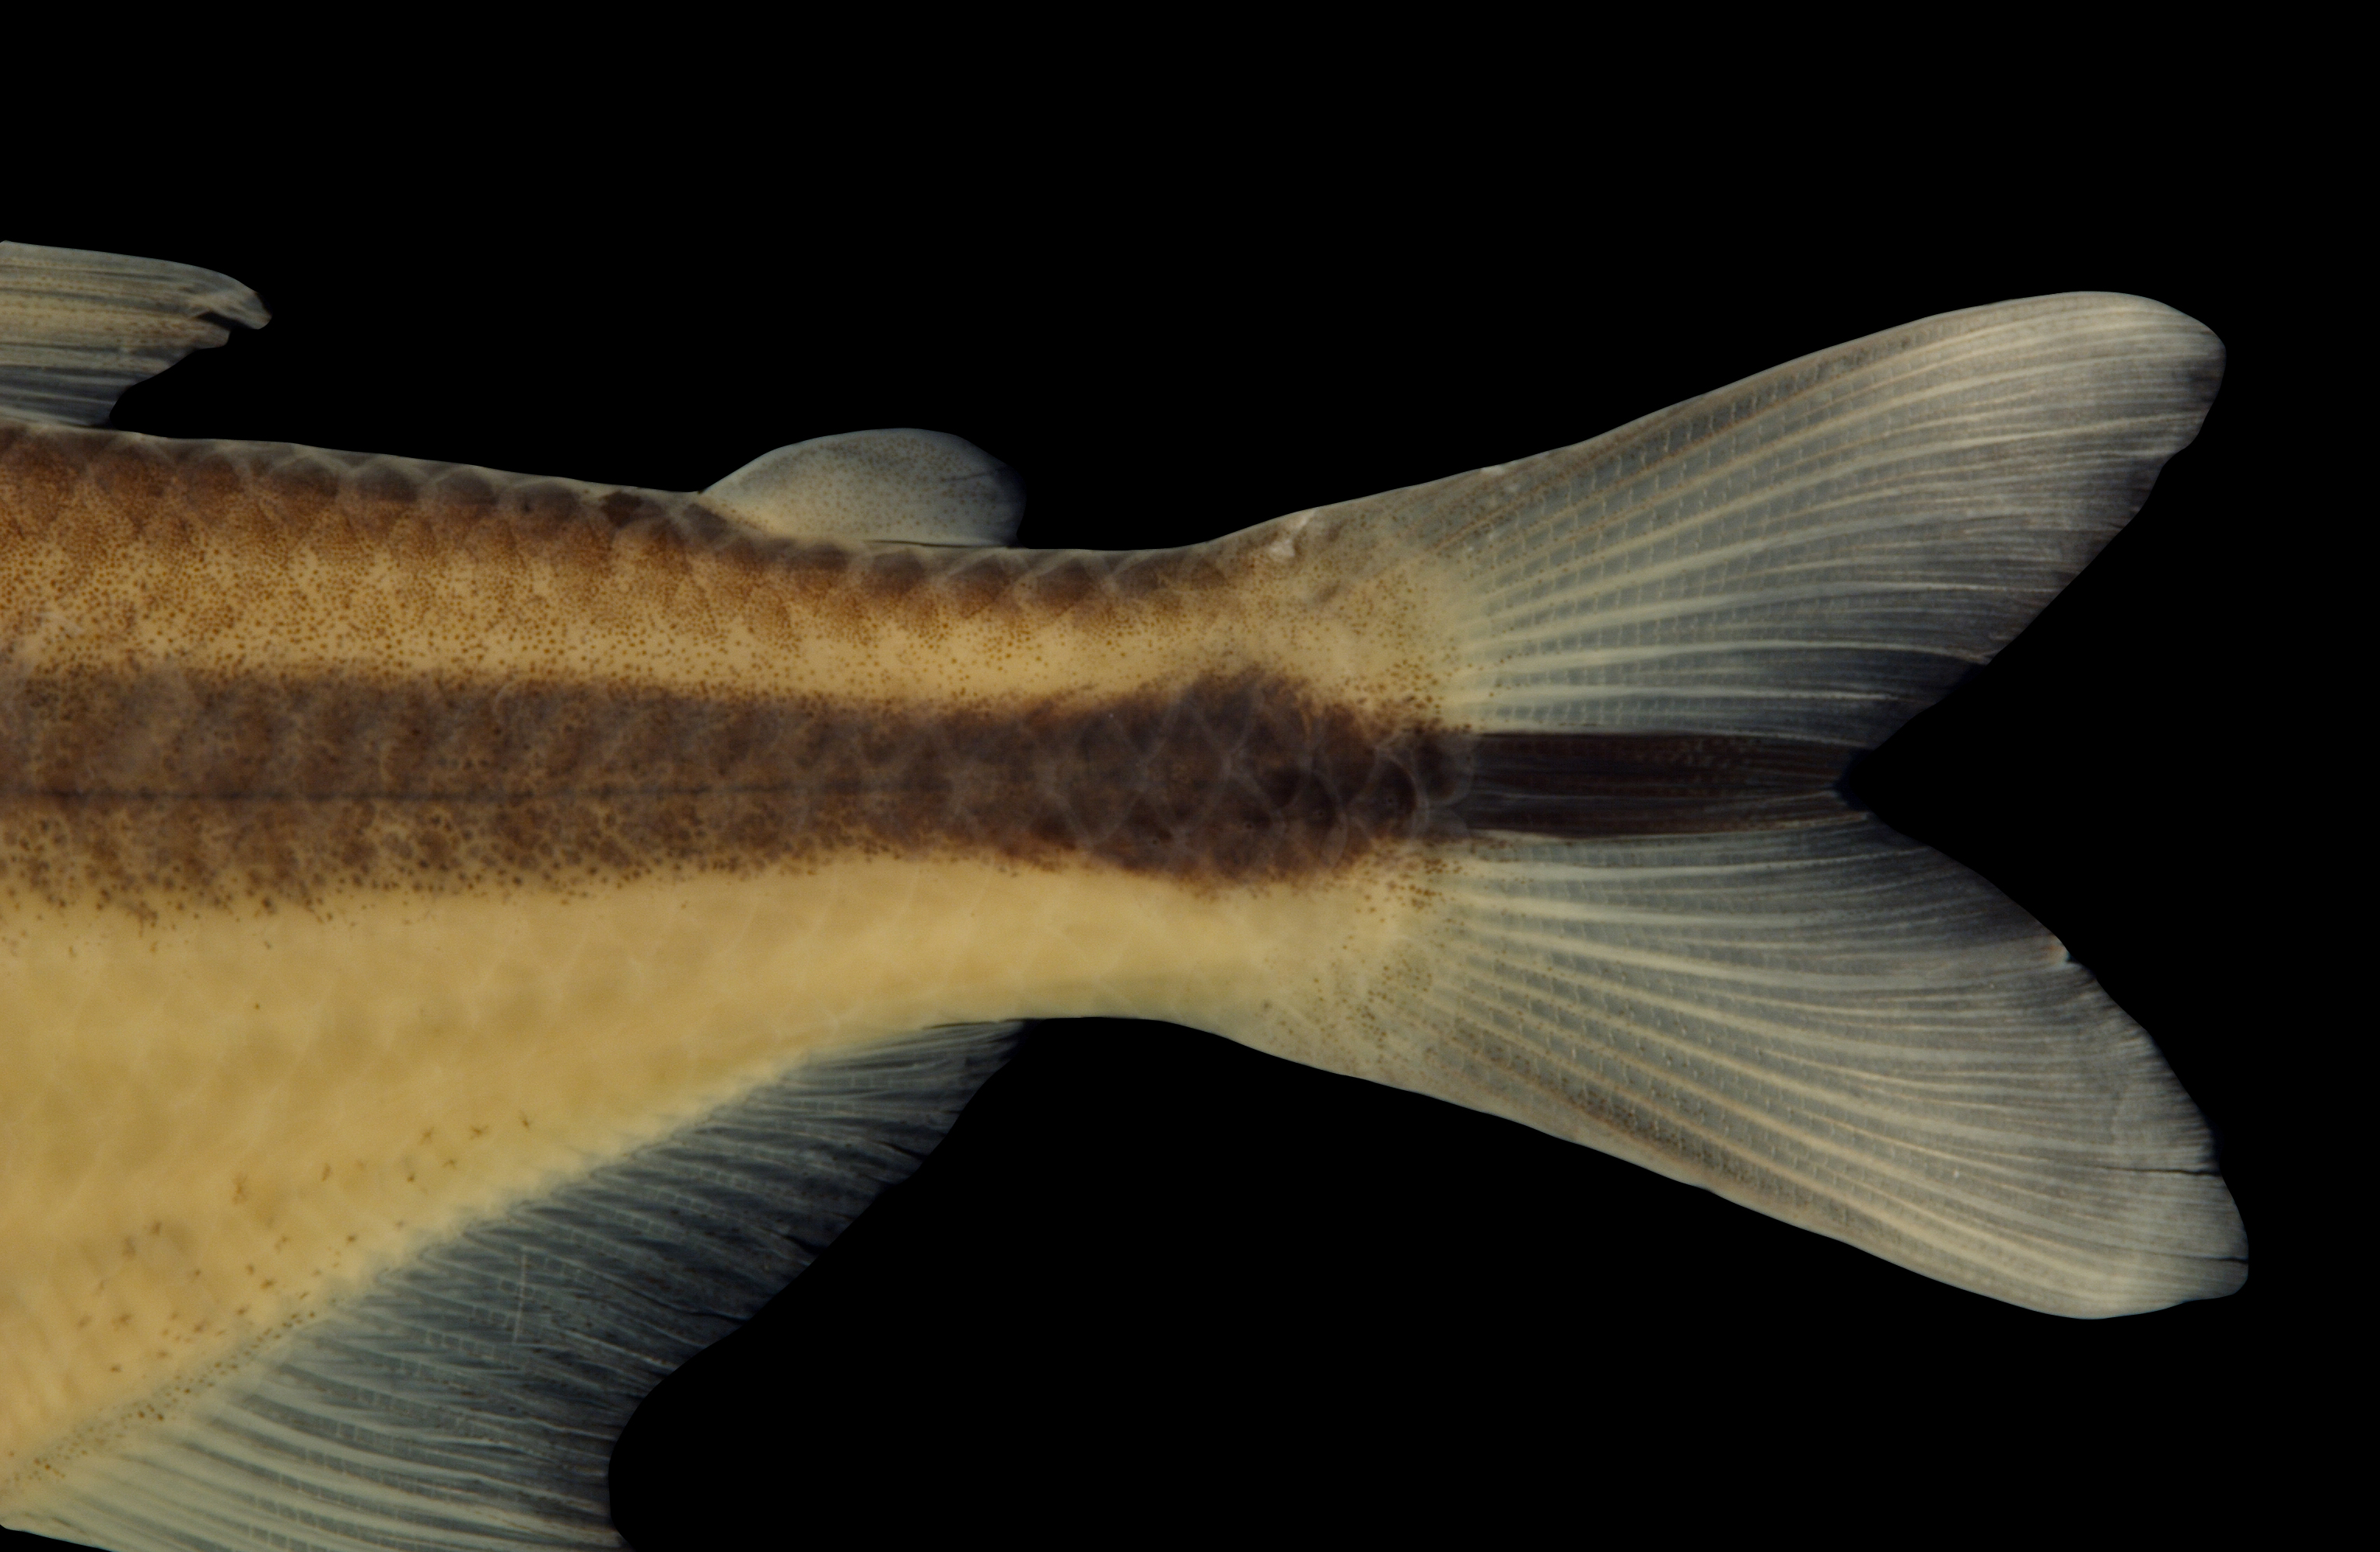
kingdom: Animalia
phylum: Chordata
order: Characiformes
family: Characidae
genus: Astyanax
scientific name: Astyanax mexicanus
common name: Mexican tetra
